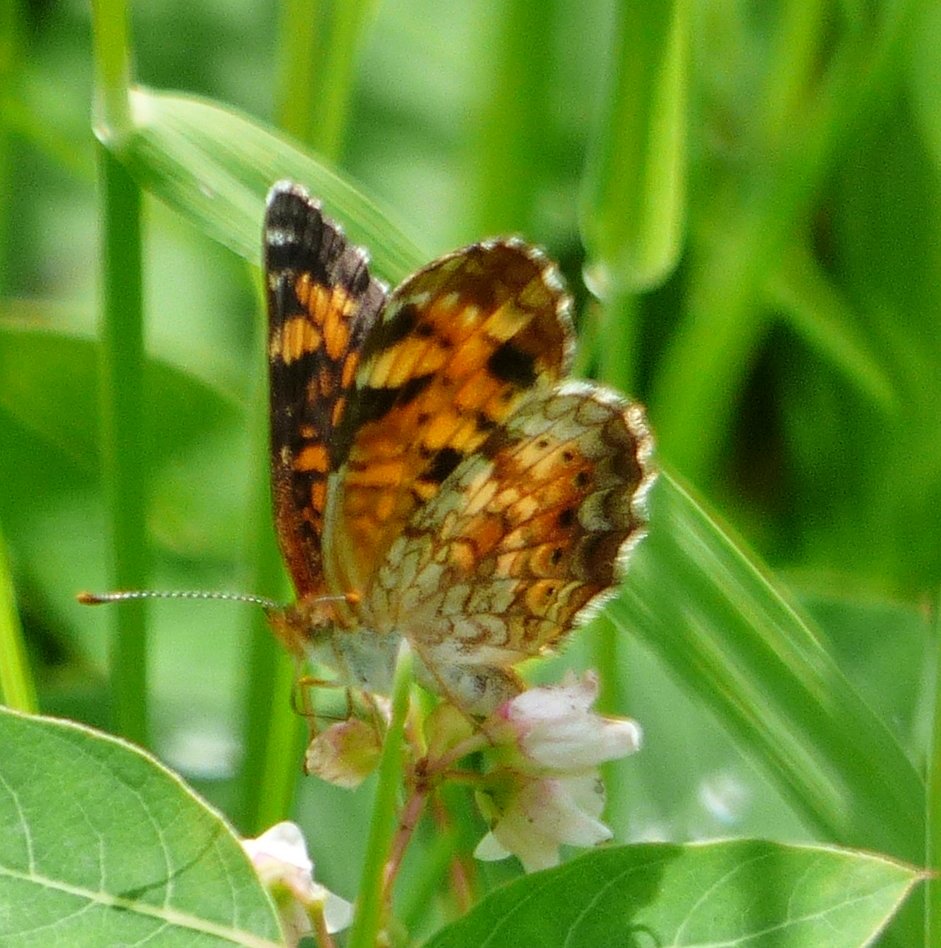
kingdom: Animalia
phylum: Arthropoda
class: Insecta
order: Lepidoptera
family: Nymphalidae
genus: Phyciodes
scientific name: Phyciodes tharos
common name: Northern Crescent
